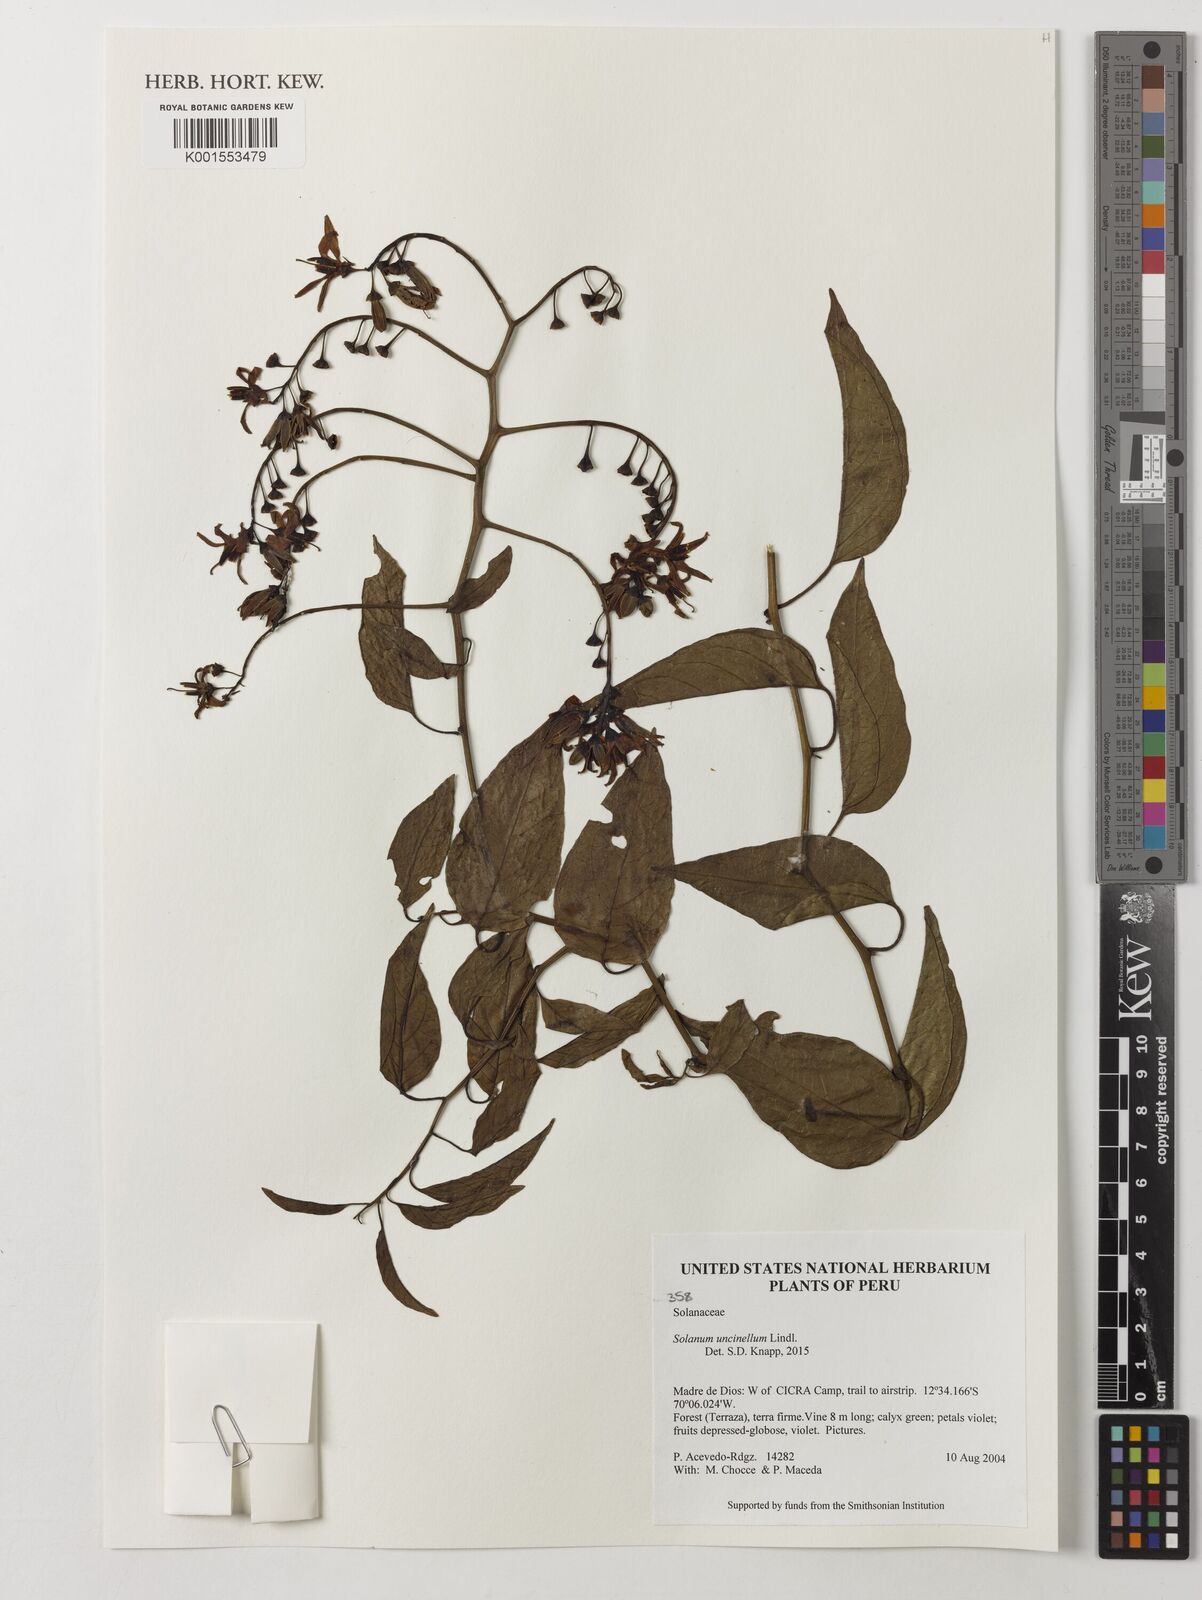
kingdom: Plantae
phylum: Tracheophyta
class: Magnoliopsida
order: Solanales
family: Solanaceae
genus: Solanum
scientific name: Solanum uncinellum
